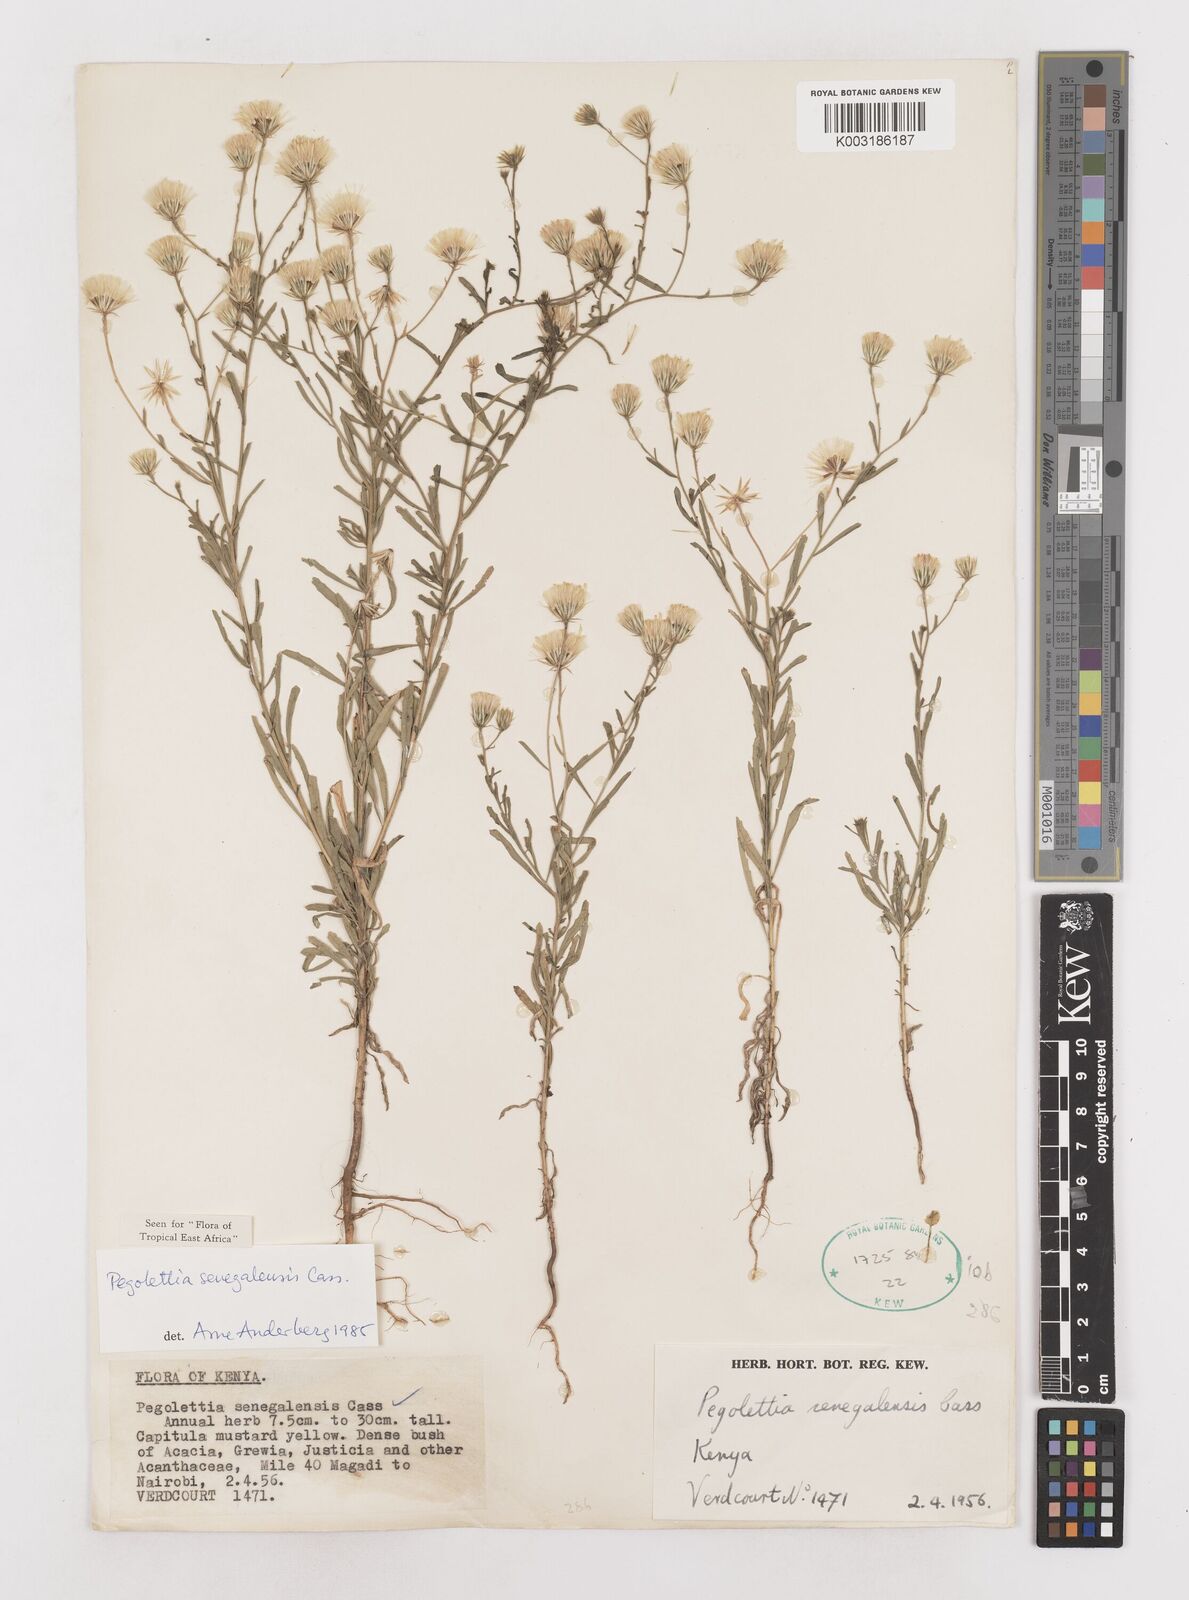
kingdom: Plantae
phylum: Tracheophyta
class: Magnoliopsida
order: Asterales
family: Asteraceae
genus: Pegolettia
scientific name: Pegolettia senegalensis
